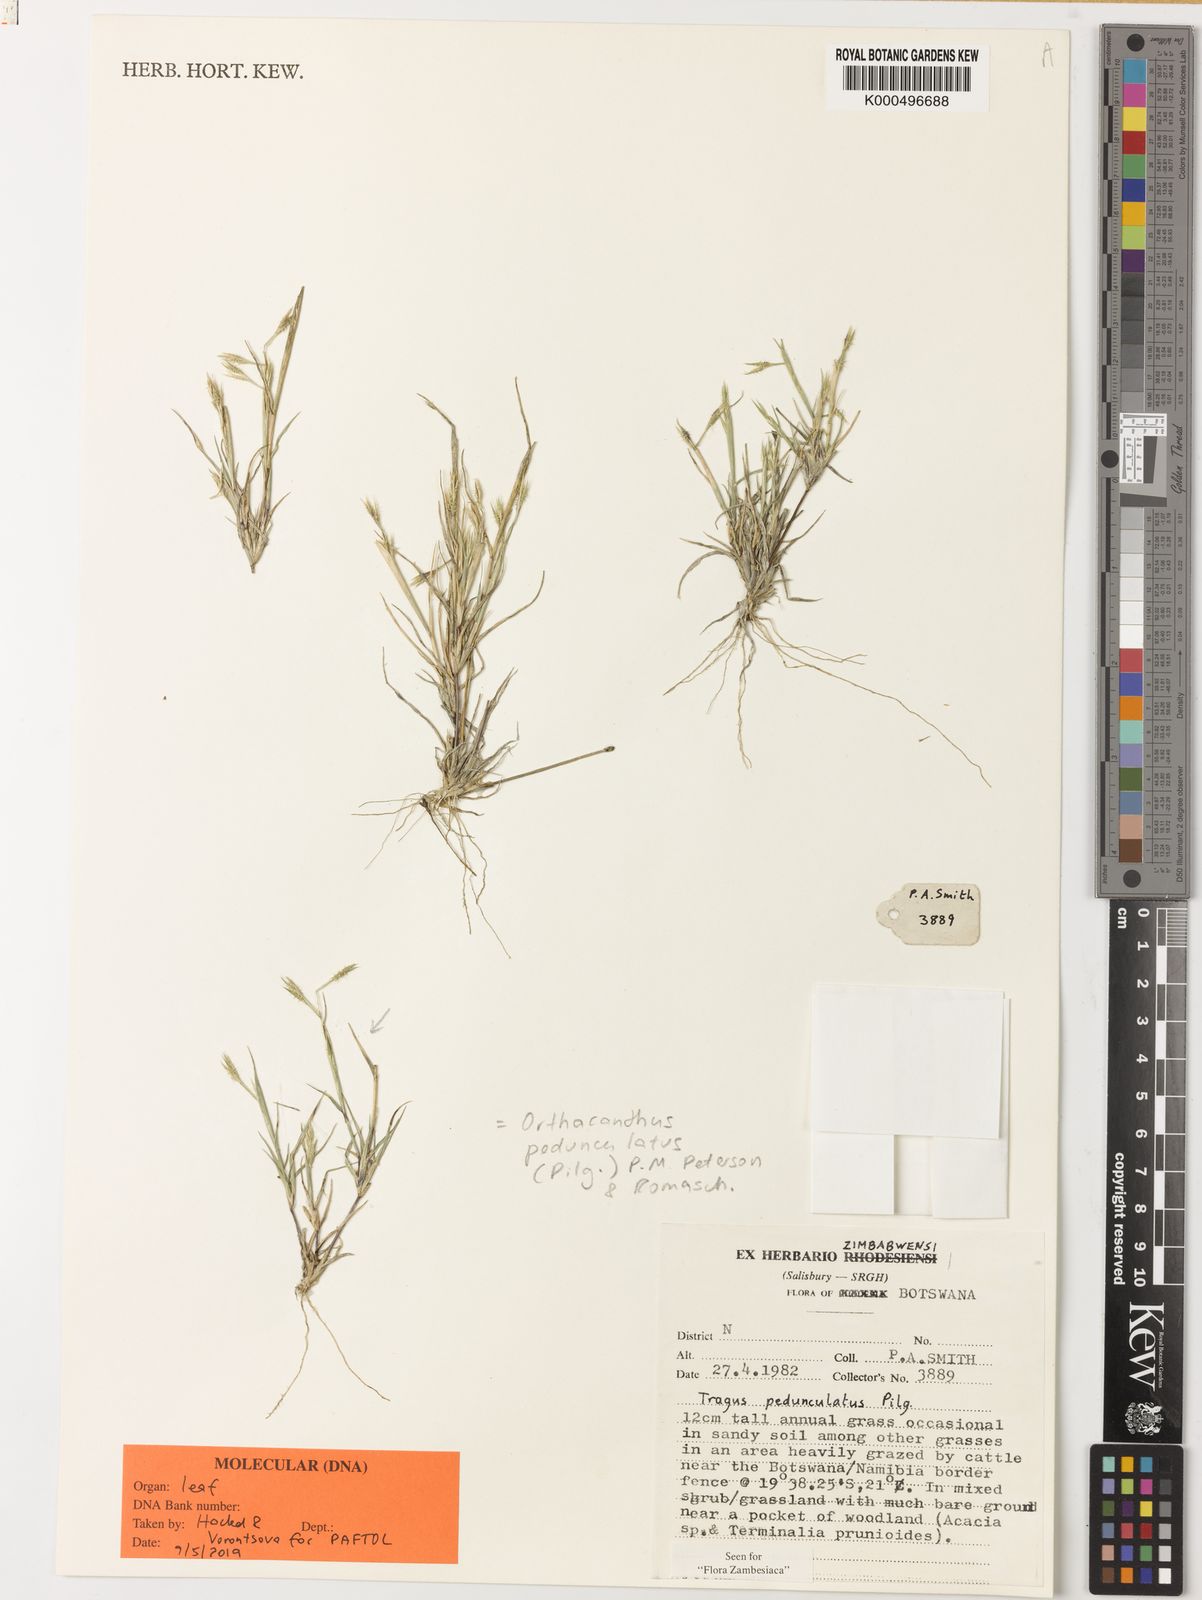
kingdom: Plantae
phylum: Tracheophyta
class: Liliopsida
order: Poales
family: Poaceae
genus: Orthacanthus
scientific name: Orthacanthus pedunculatus
